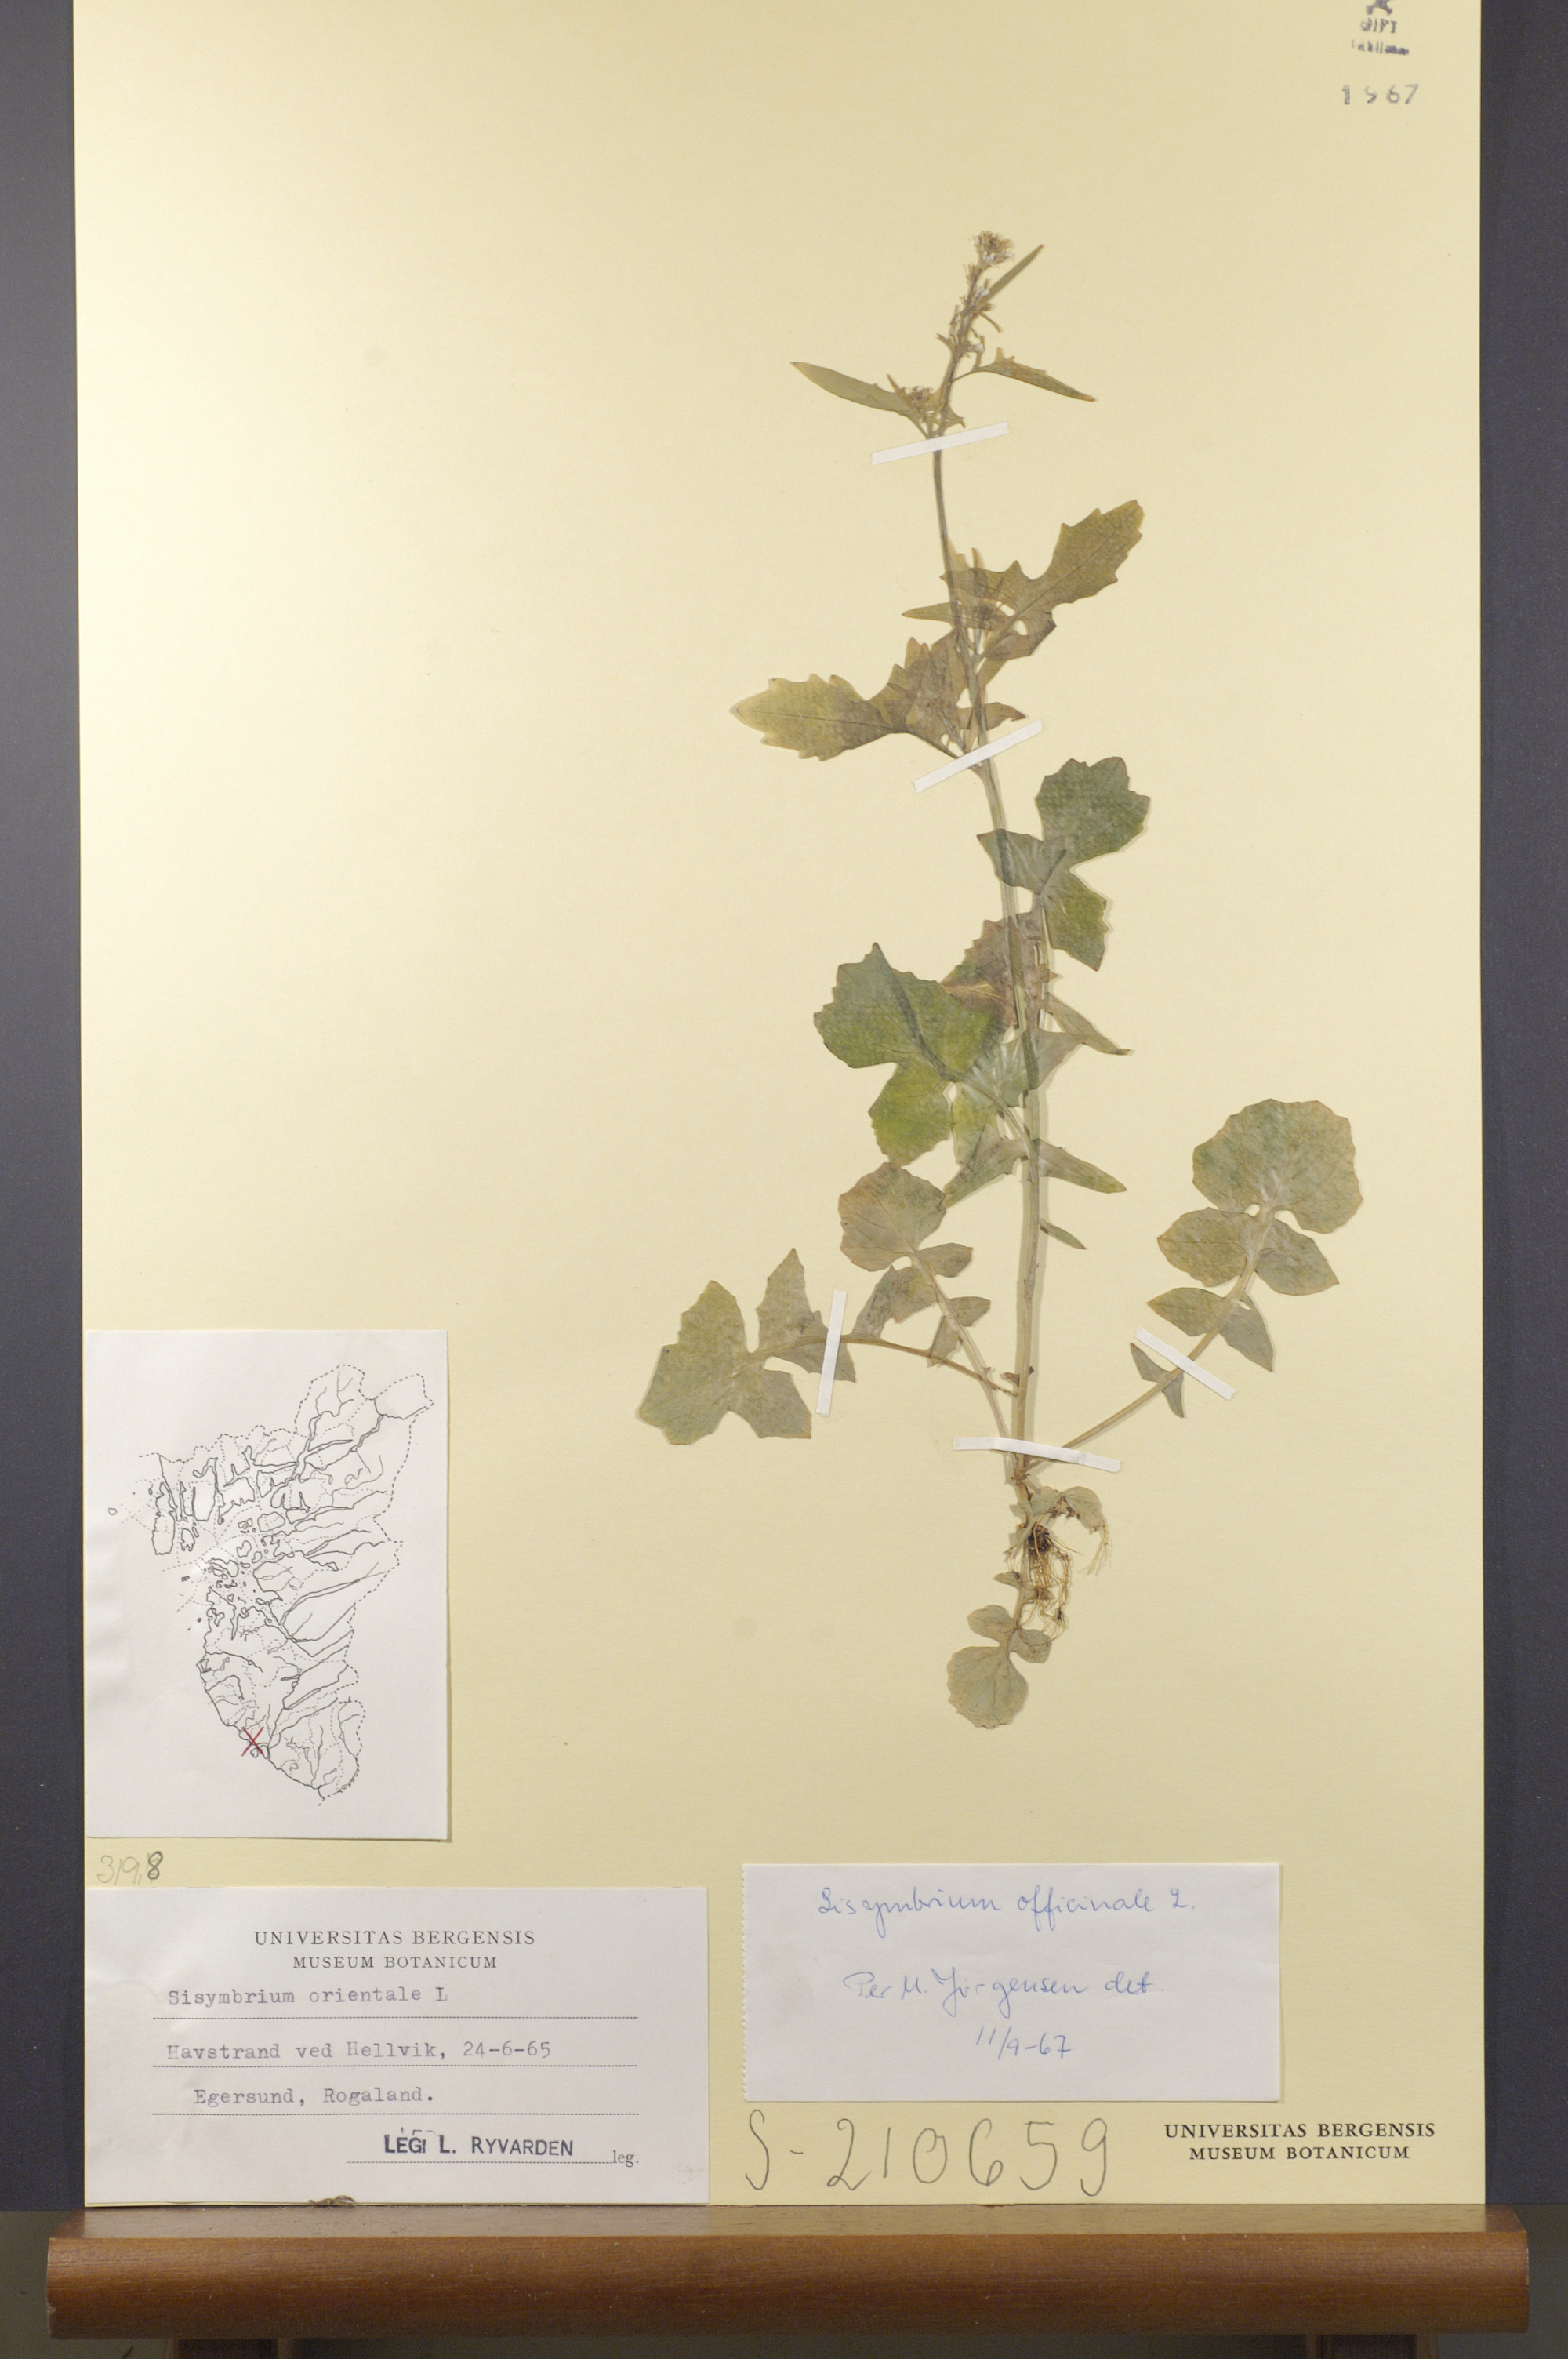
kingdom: Plantae
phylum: Tracheophyta
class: Magnoliopsida
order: Brassicales
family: Brassicaceae
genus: Sisymbrium
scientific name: Sisymbrium officinale
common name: Hedge mustard
